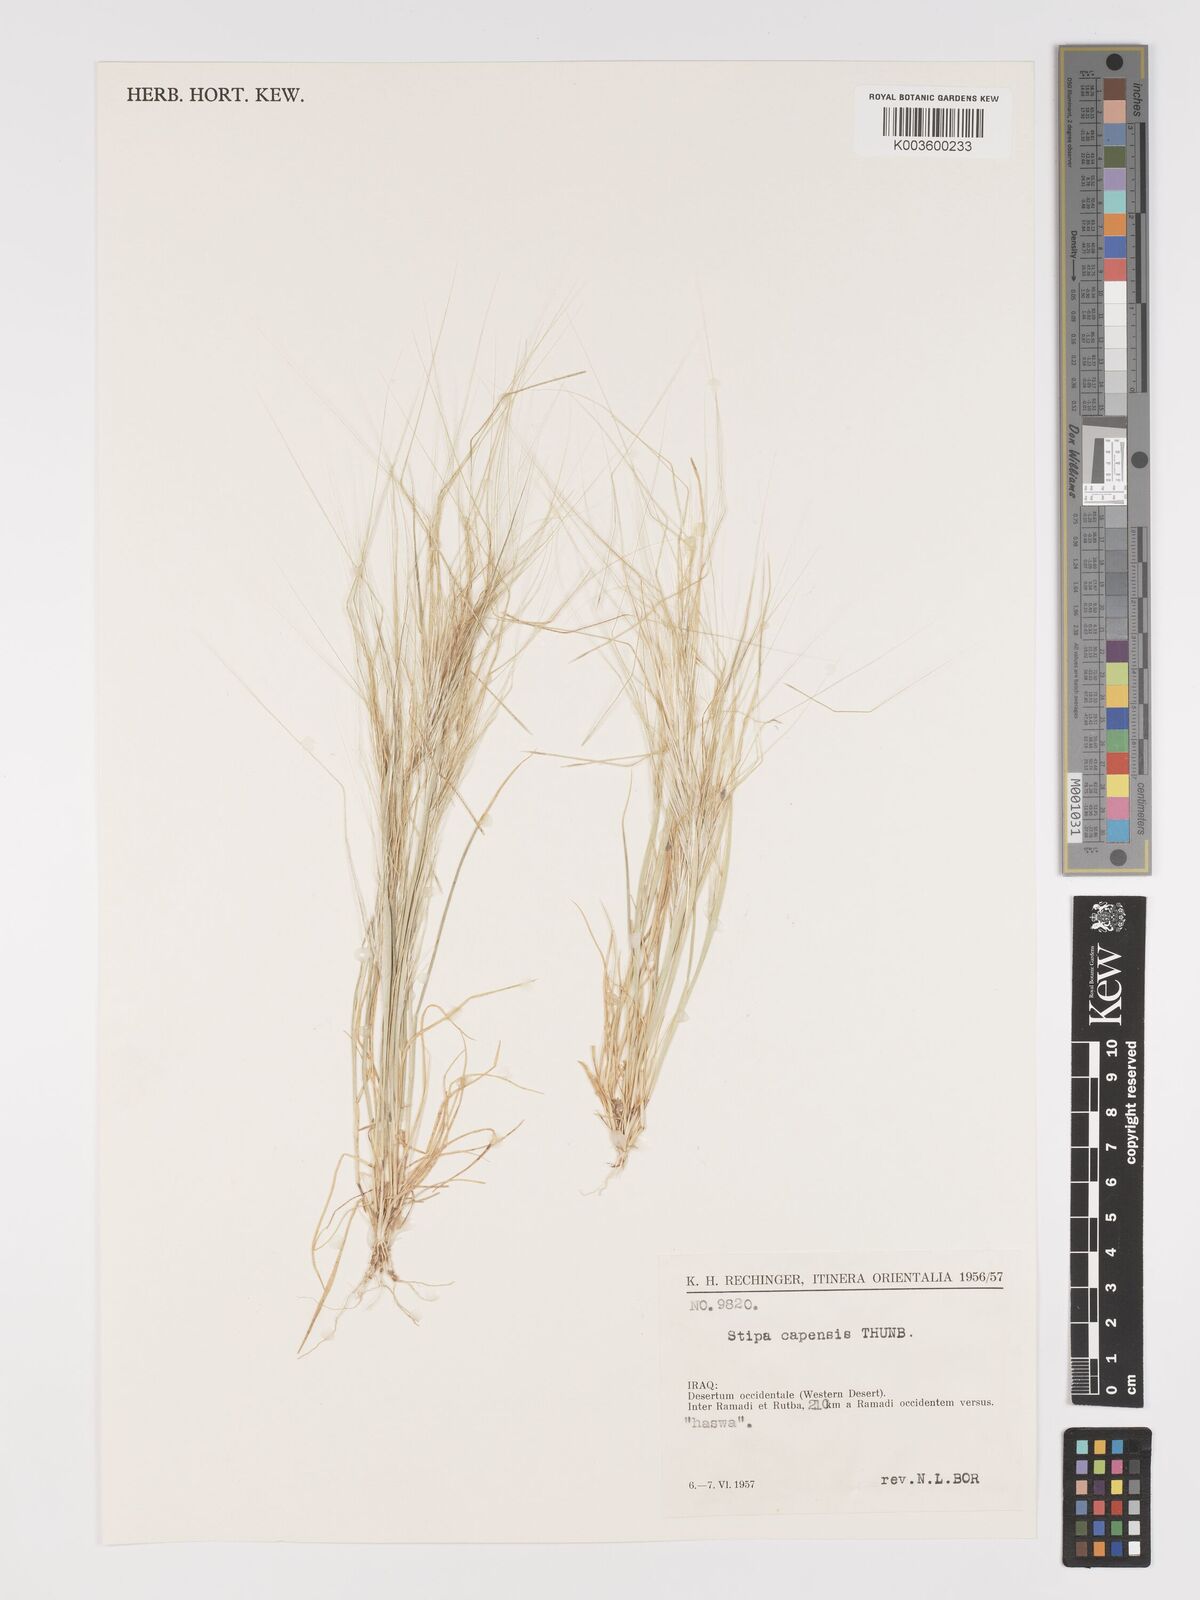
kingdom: Plantae
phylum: Tracheophyta
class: Liliopsida
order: Poales
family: Poaceae
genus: Stipellula
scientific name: Stipellula capensis
